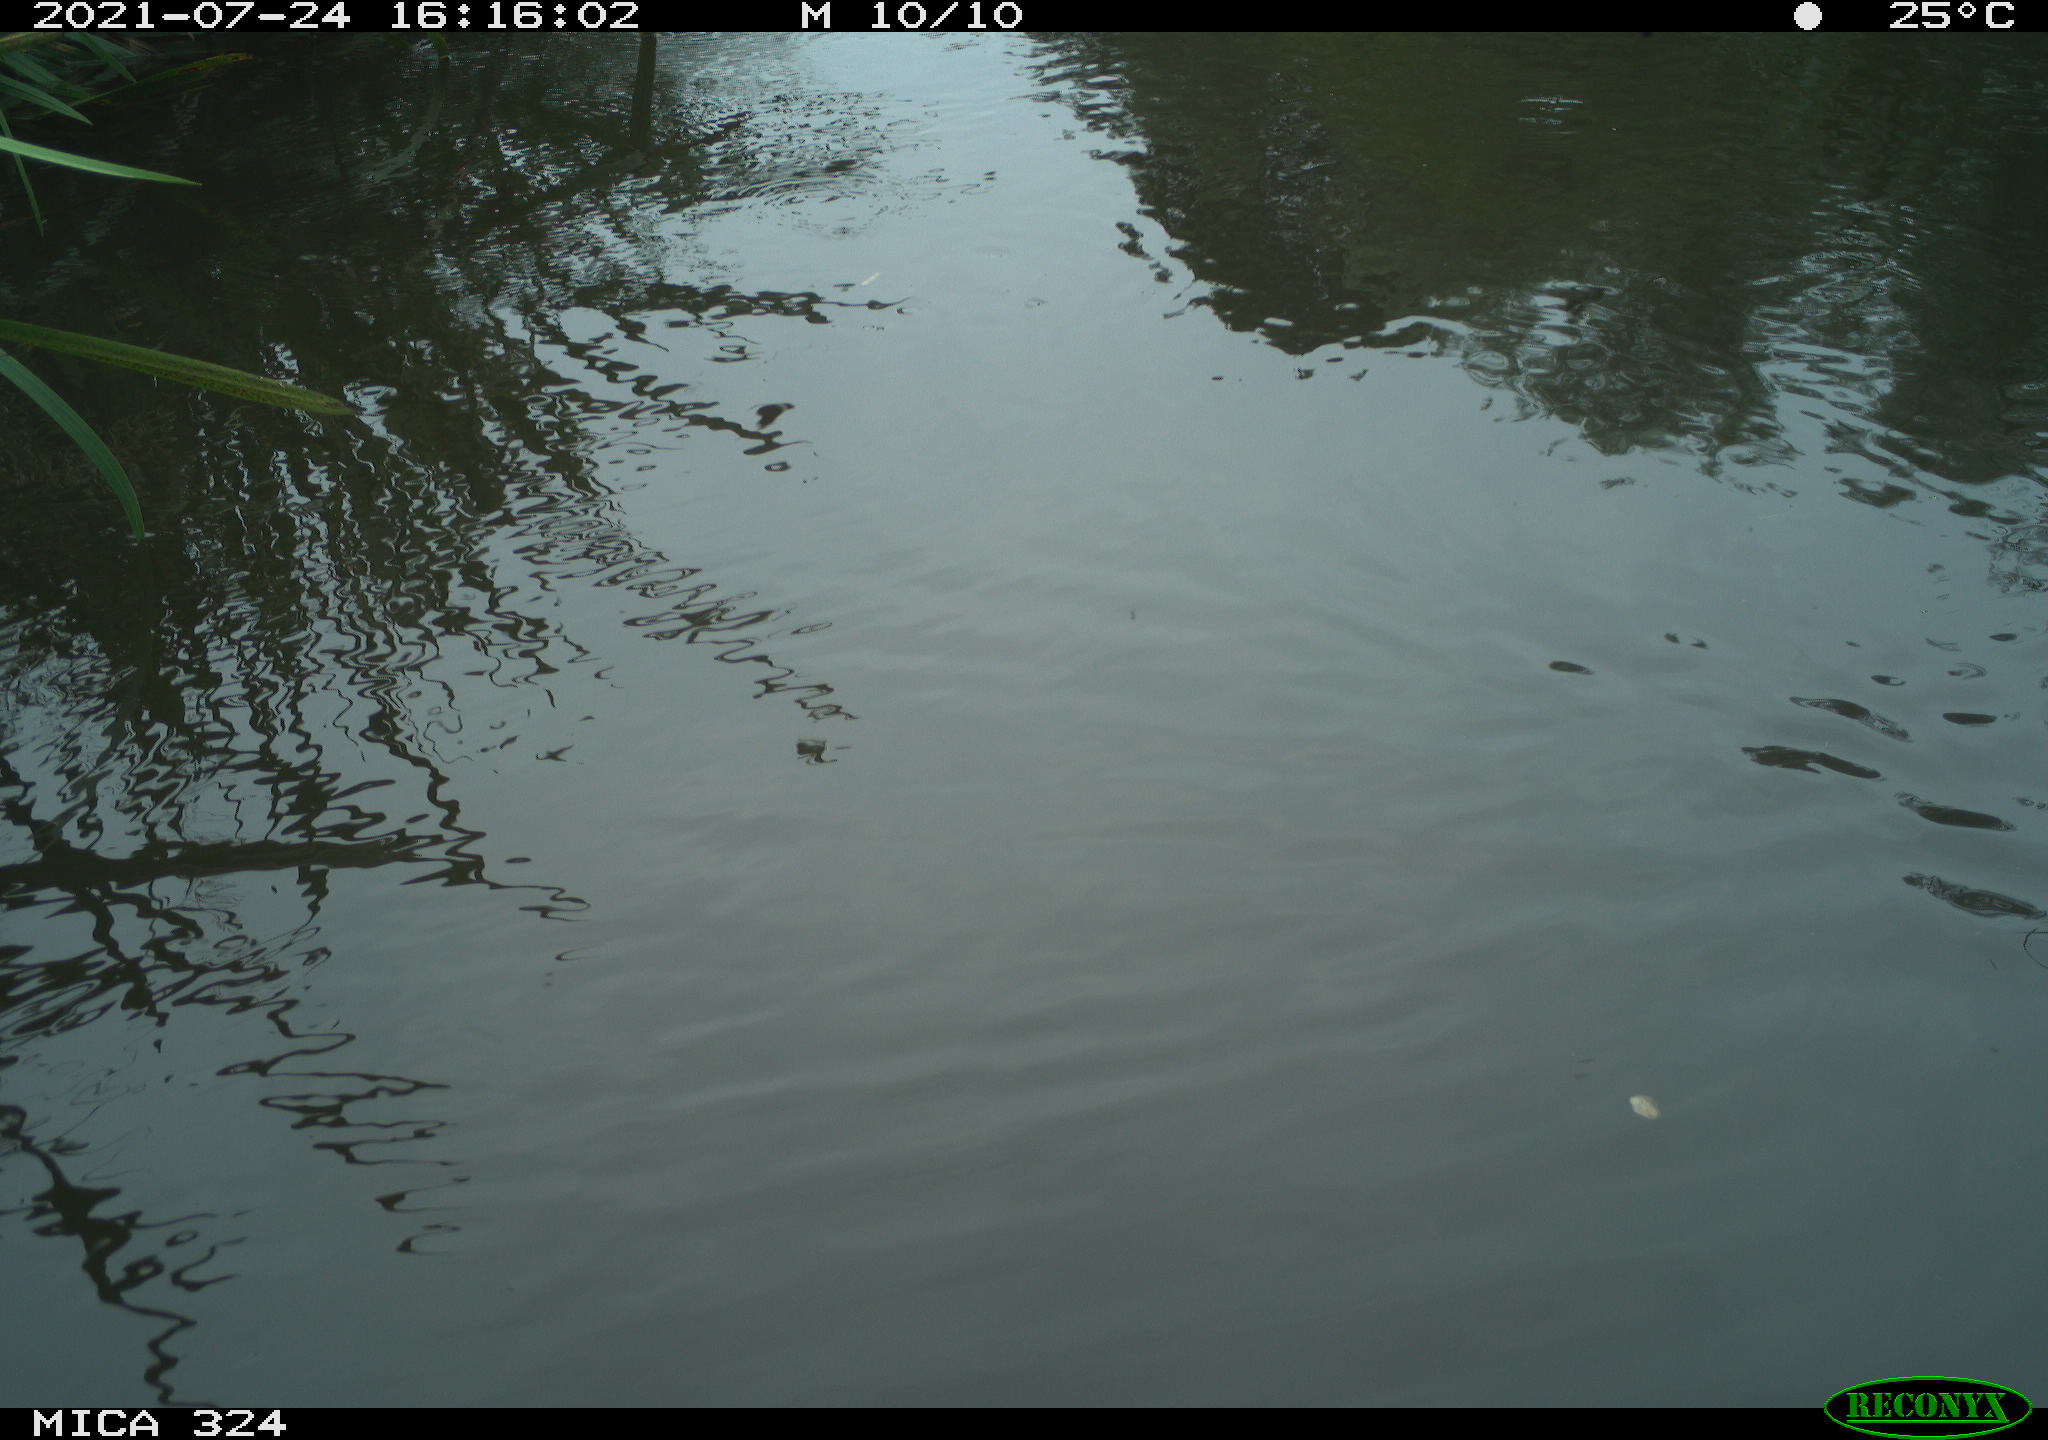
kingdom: Animalia
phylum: Chordata
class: Aves
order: Gruiformes
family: Rallidae
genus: Gallinula
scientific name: Gallinula chloropus
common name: Common moorhen
